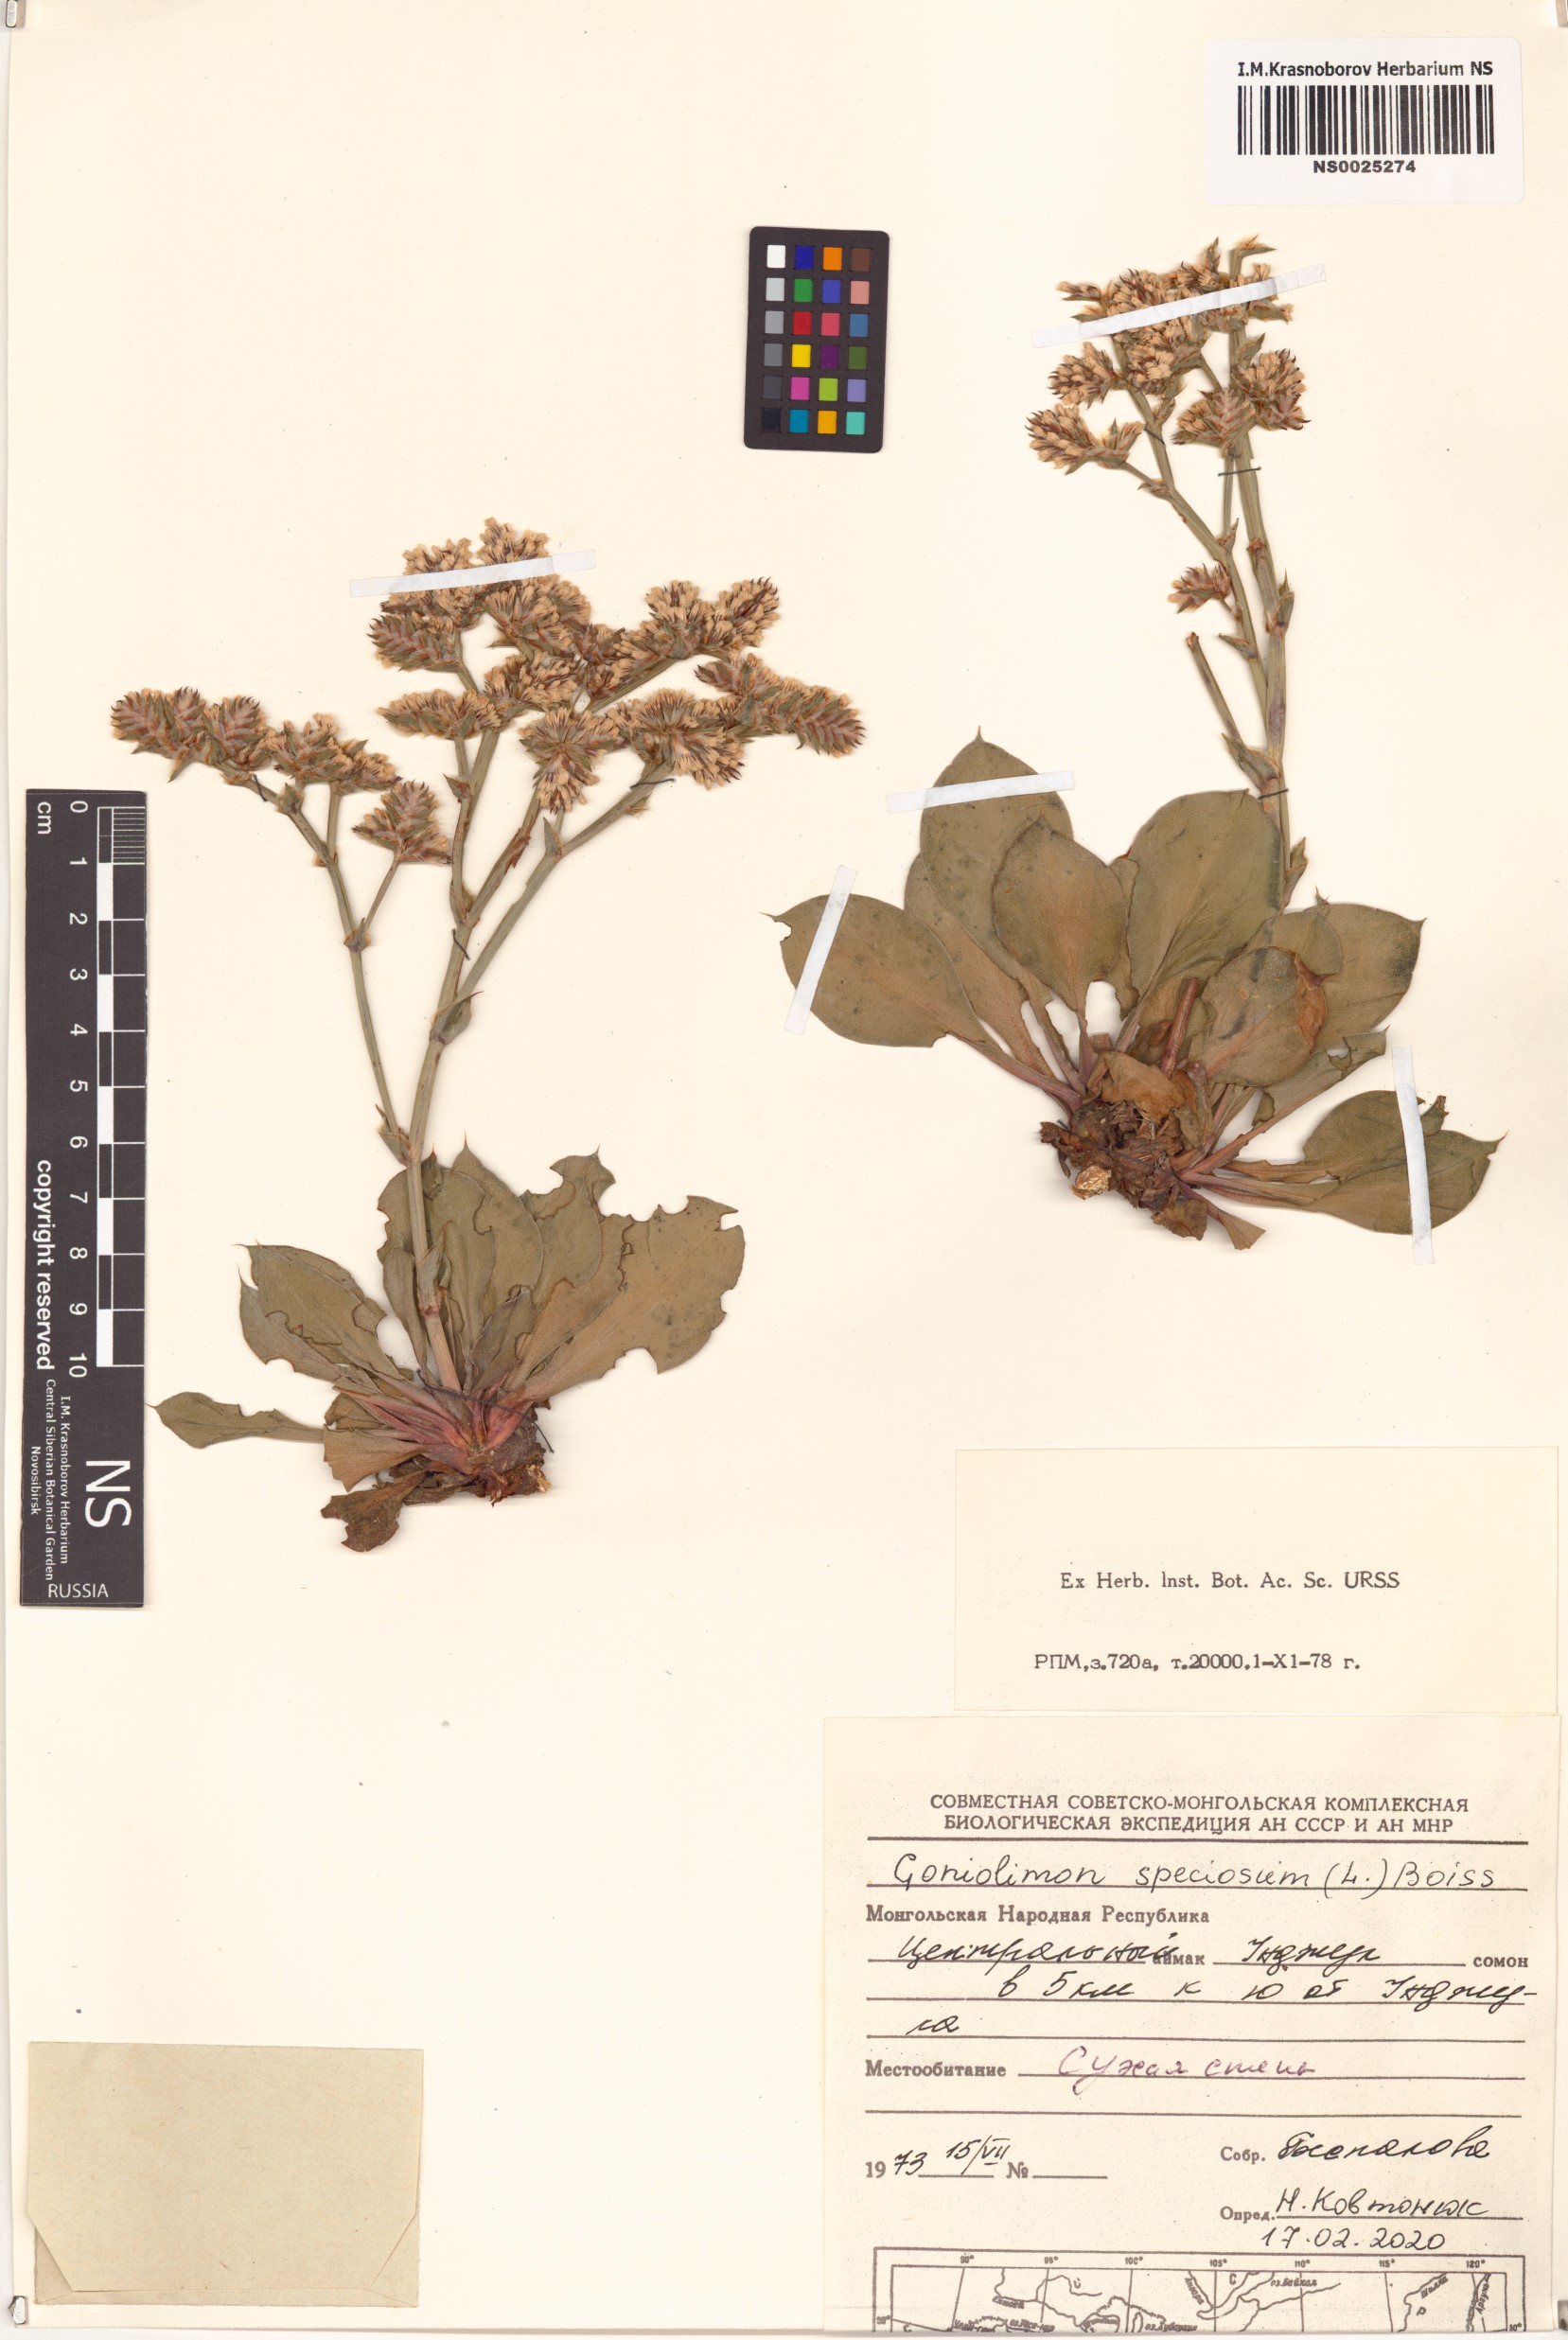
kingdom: Plantae
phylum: Tracheophyta
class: Magnoliopsida
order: Caryophyllales
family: Plumbaginaceae
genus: Goniolimon
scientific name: Goniolimon speciosum
